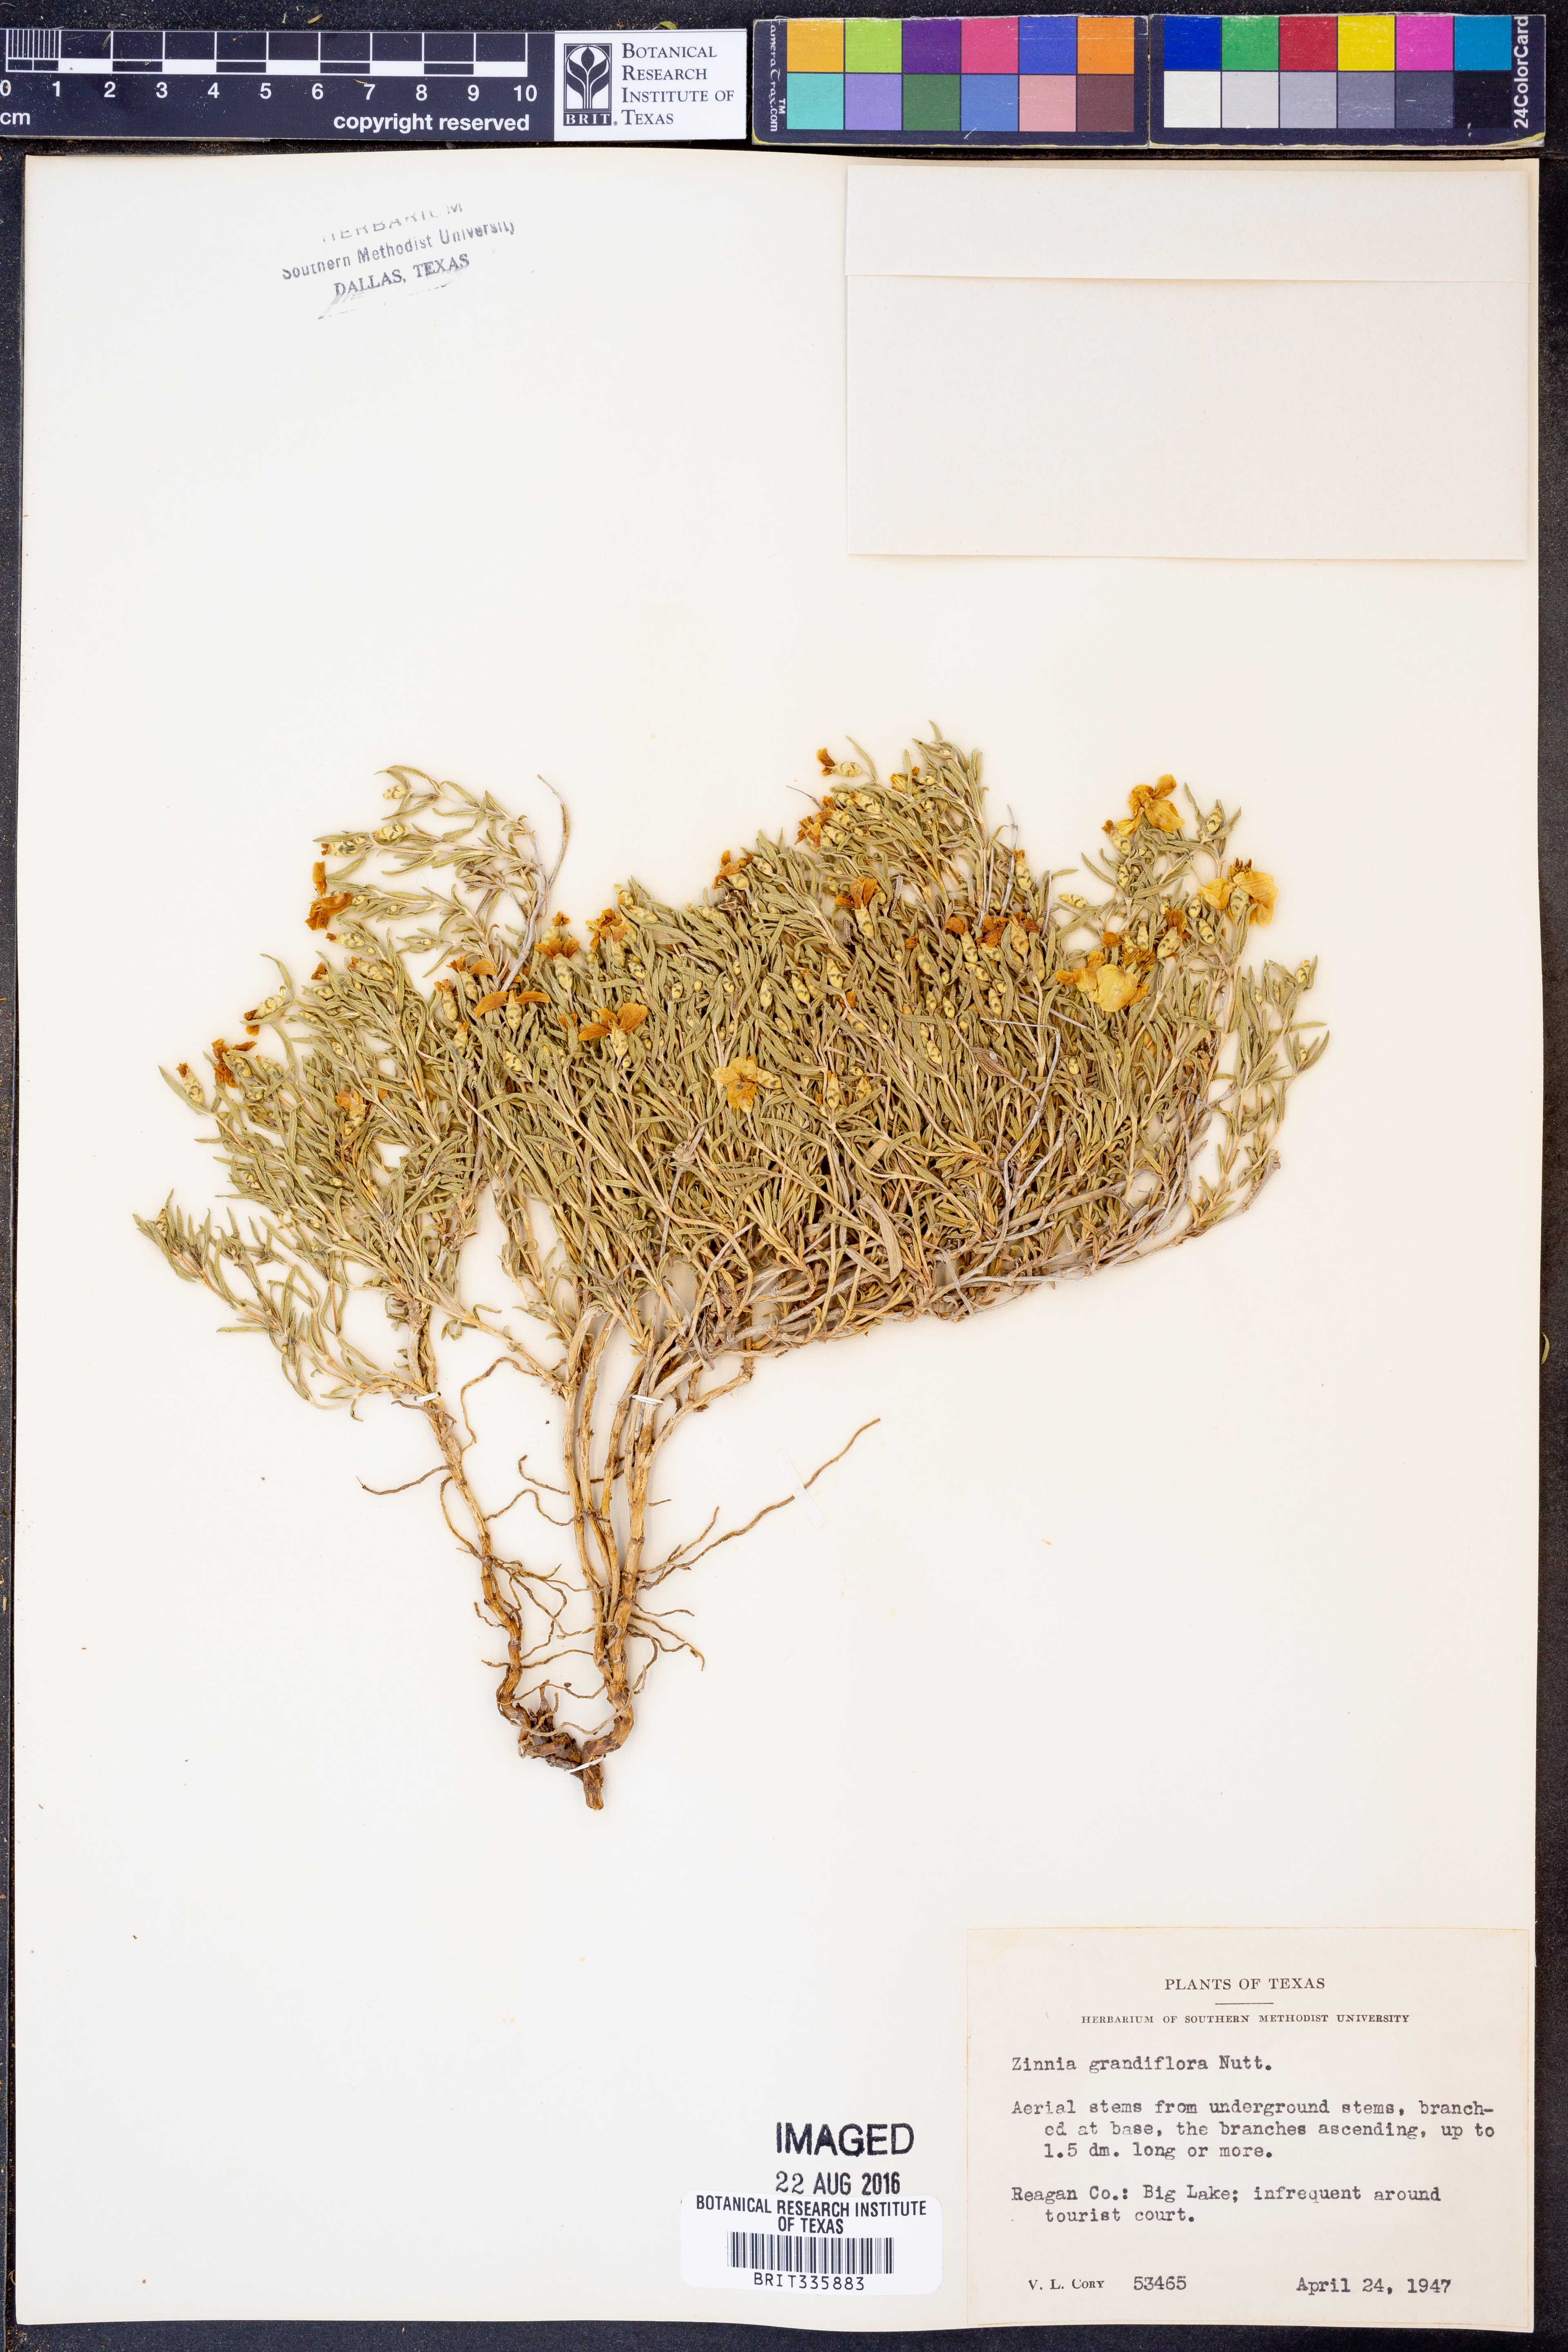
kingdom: Plantae
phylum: Tracheophyta
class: Magnoliopsida
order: Asterales
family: Asteraceae
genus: Zinnia
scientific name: Zinnia grandiflora
